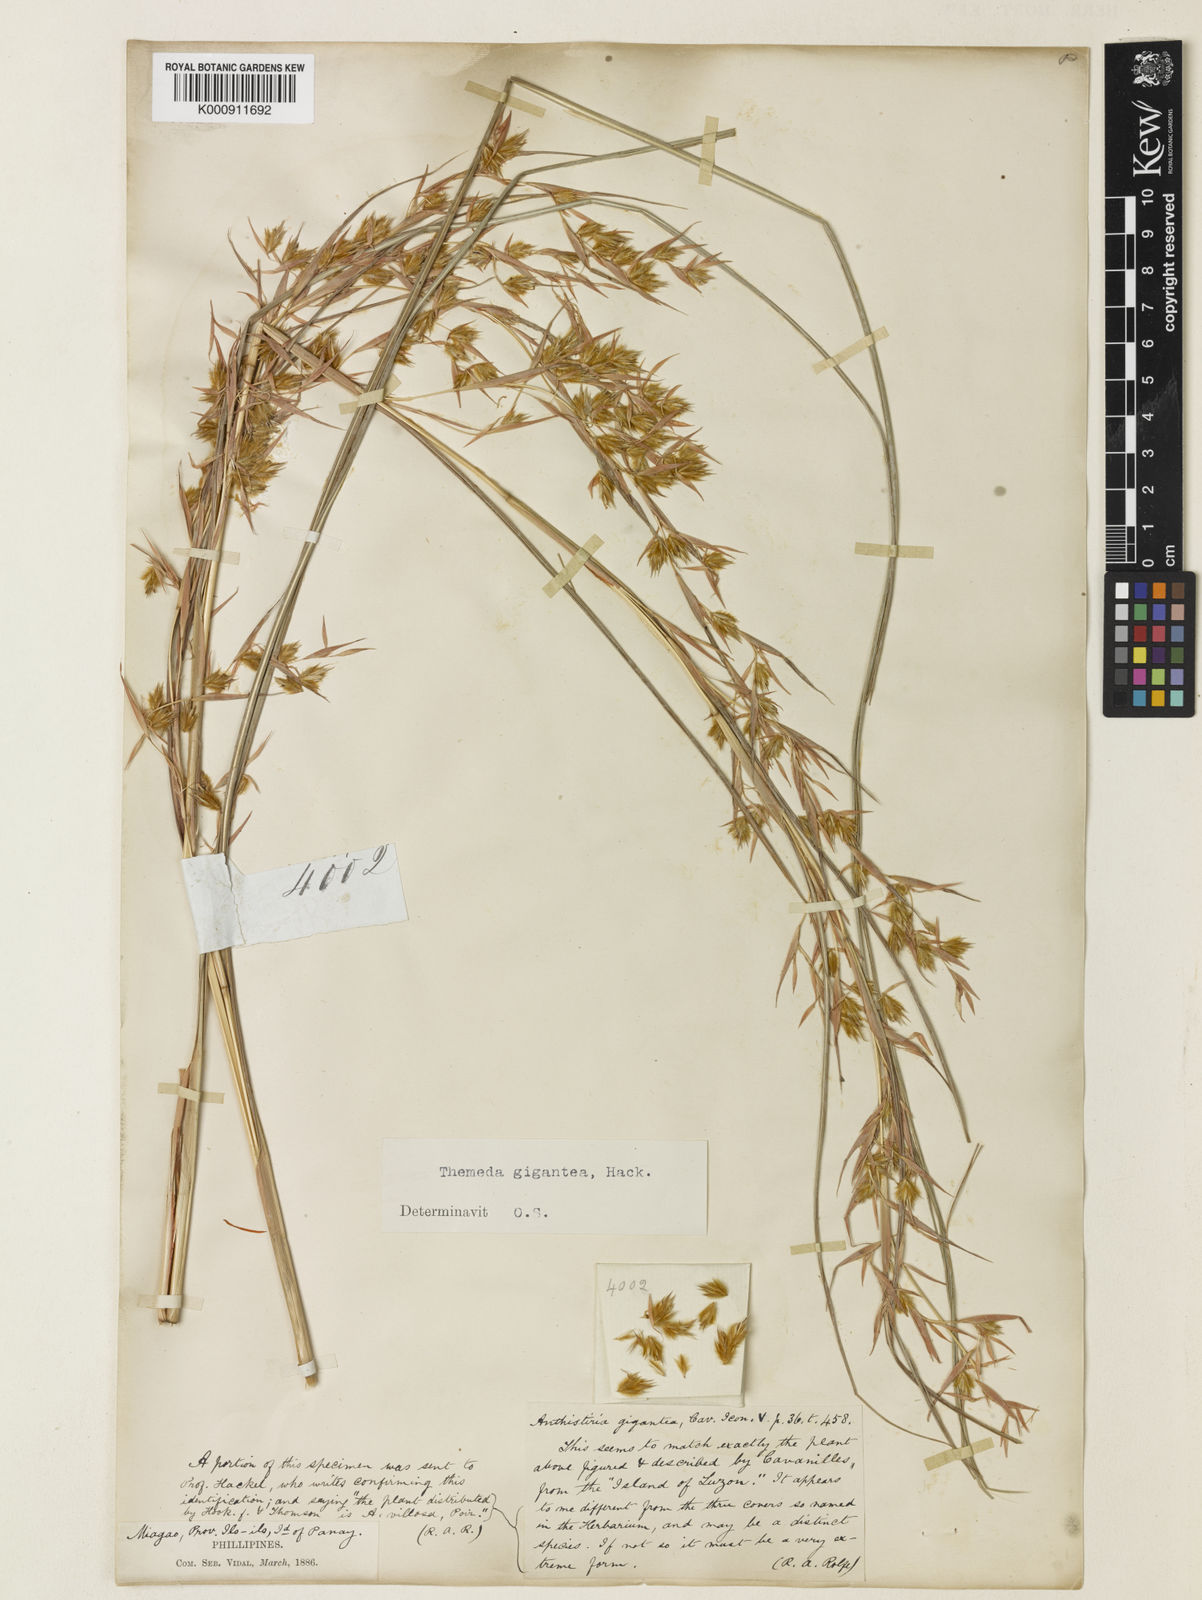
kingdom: Plantae
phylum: Tracheophyta
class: Liliopsida
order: Poales
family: Poaceae
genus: Themeda
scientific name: Themeda
